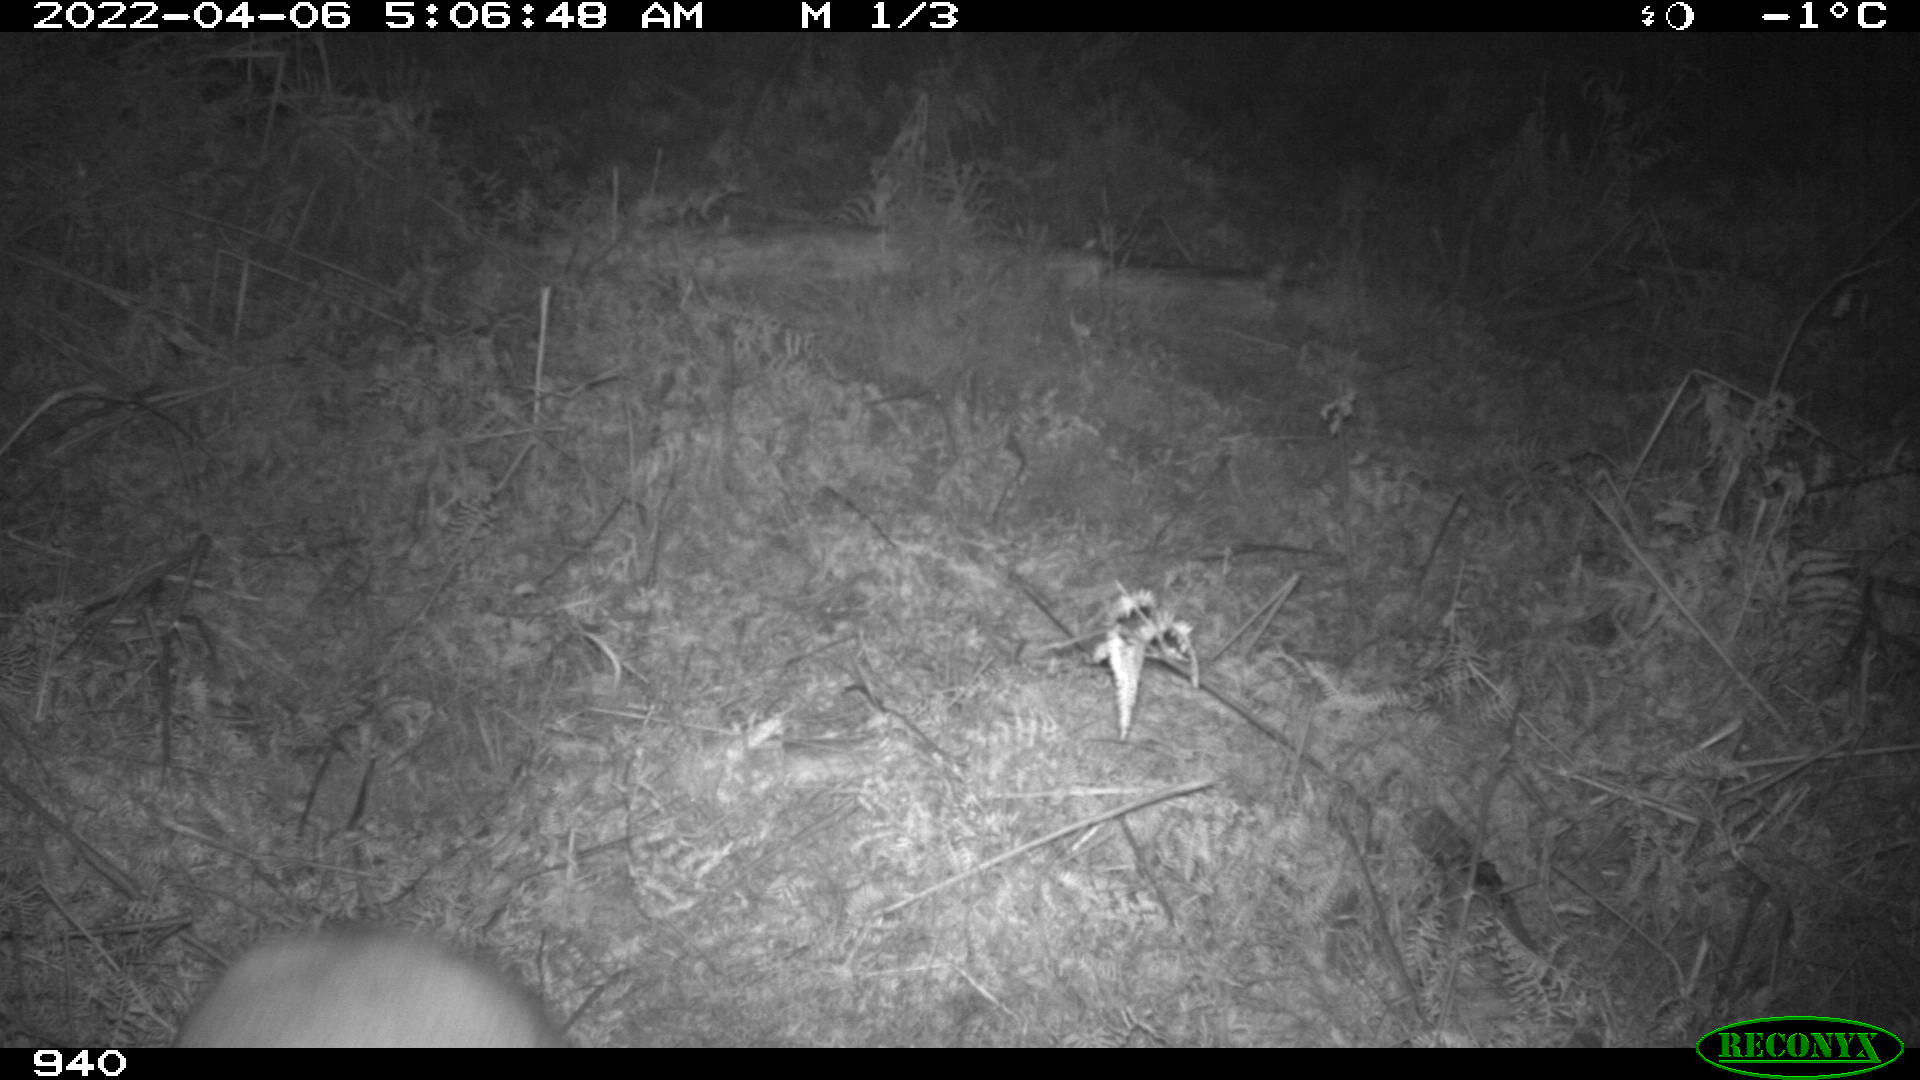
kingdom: Animalia
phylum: Chordata
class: Mammalia
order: Artiodactyla
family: Cervidae
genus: Capreolus
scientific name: Capreolus capreolus
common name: Western roe deer
